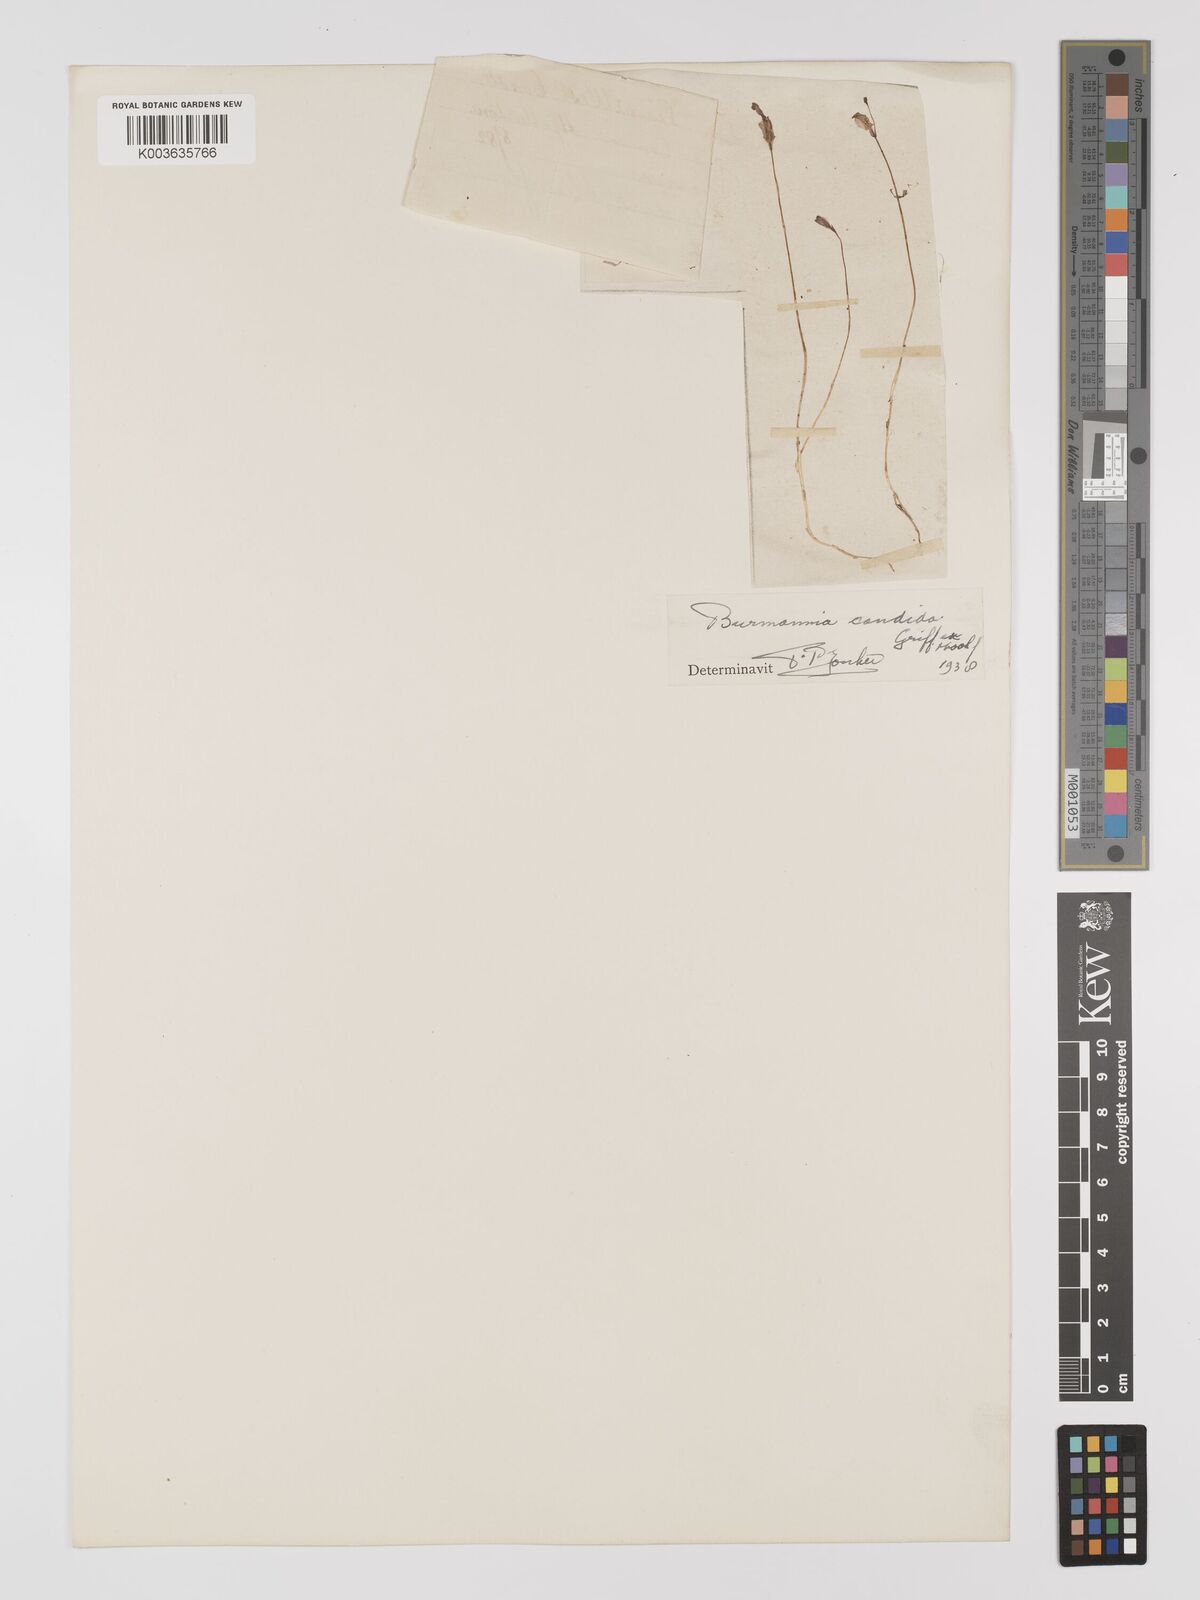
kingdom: Plantae
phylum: Tracheophyta
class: Liliopsida
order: Dioscoreales
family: Burmanniaceae
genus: Burmannia
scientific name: Burmannia
